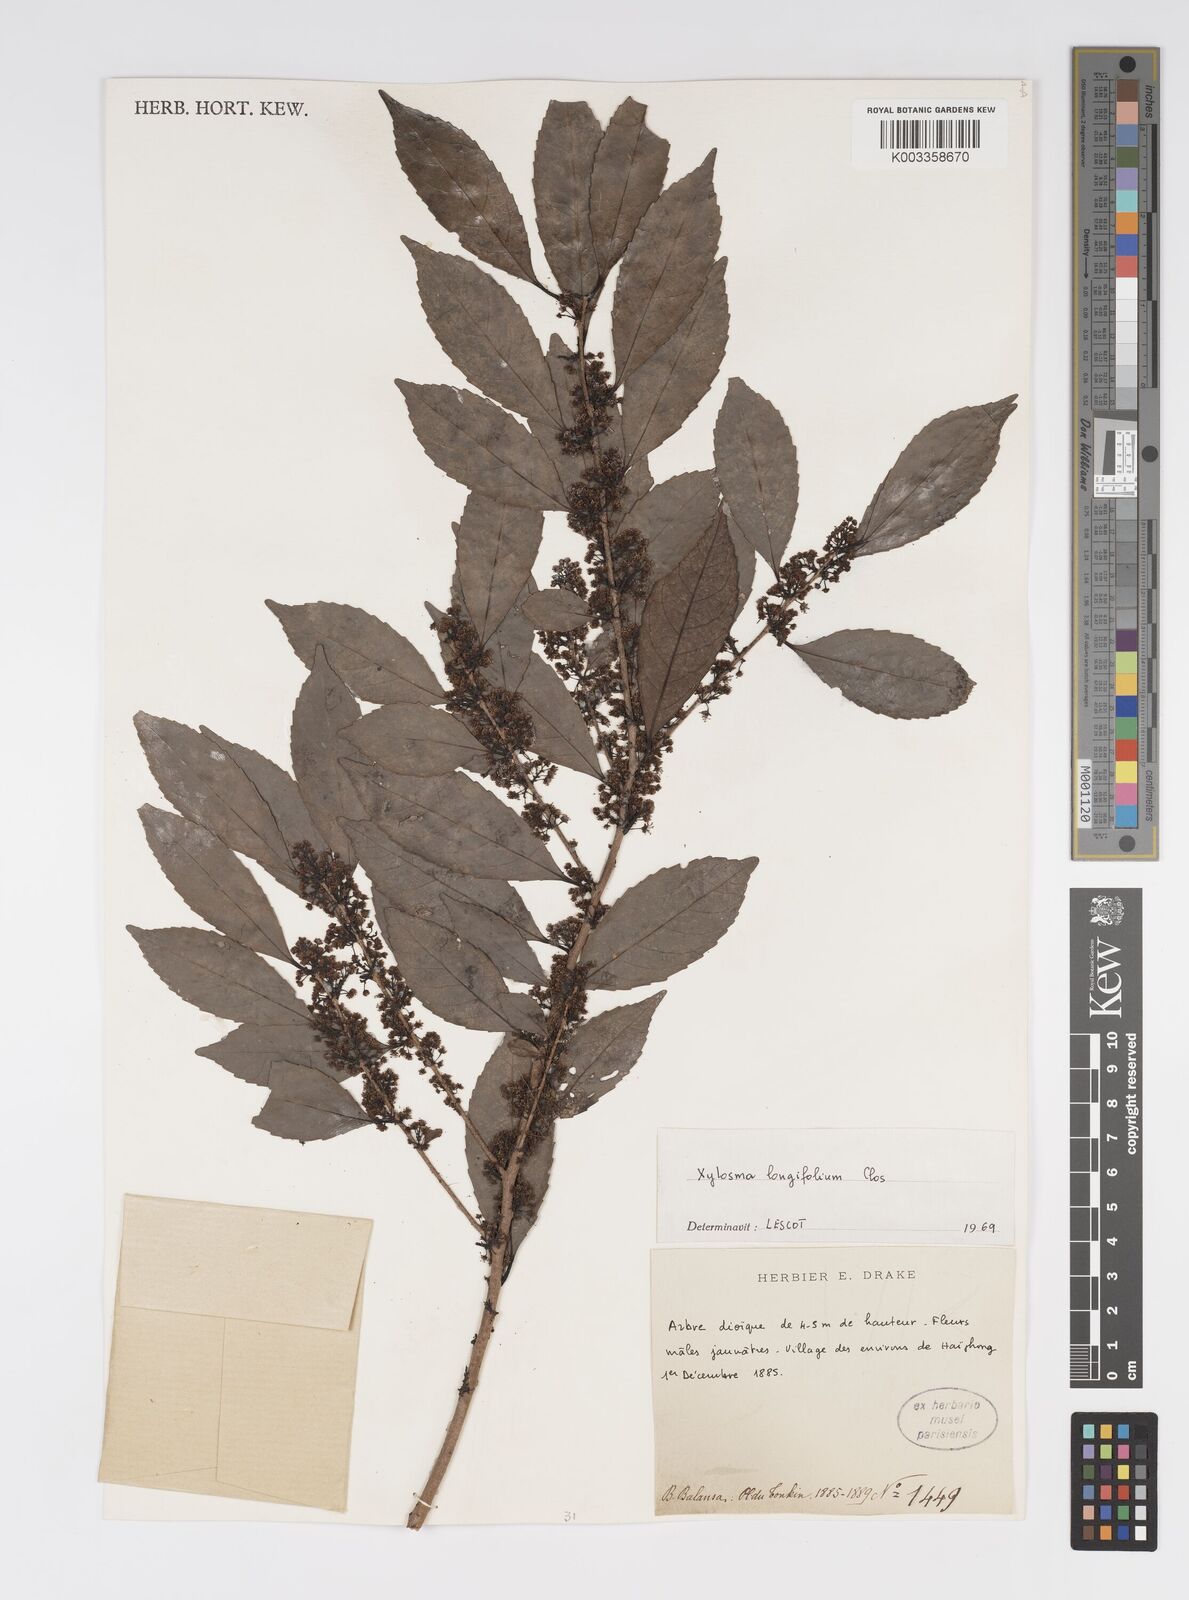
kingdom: Plantae
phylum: Tracheophyta
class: Magnoliopsida
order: Malpighiales
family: Salicaceae
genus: Xylosma
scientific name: Xylosma longifolia
